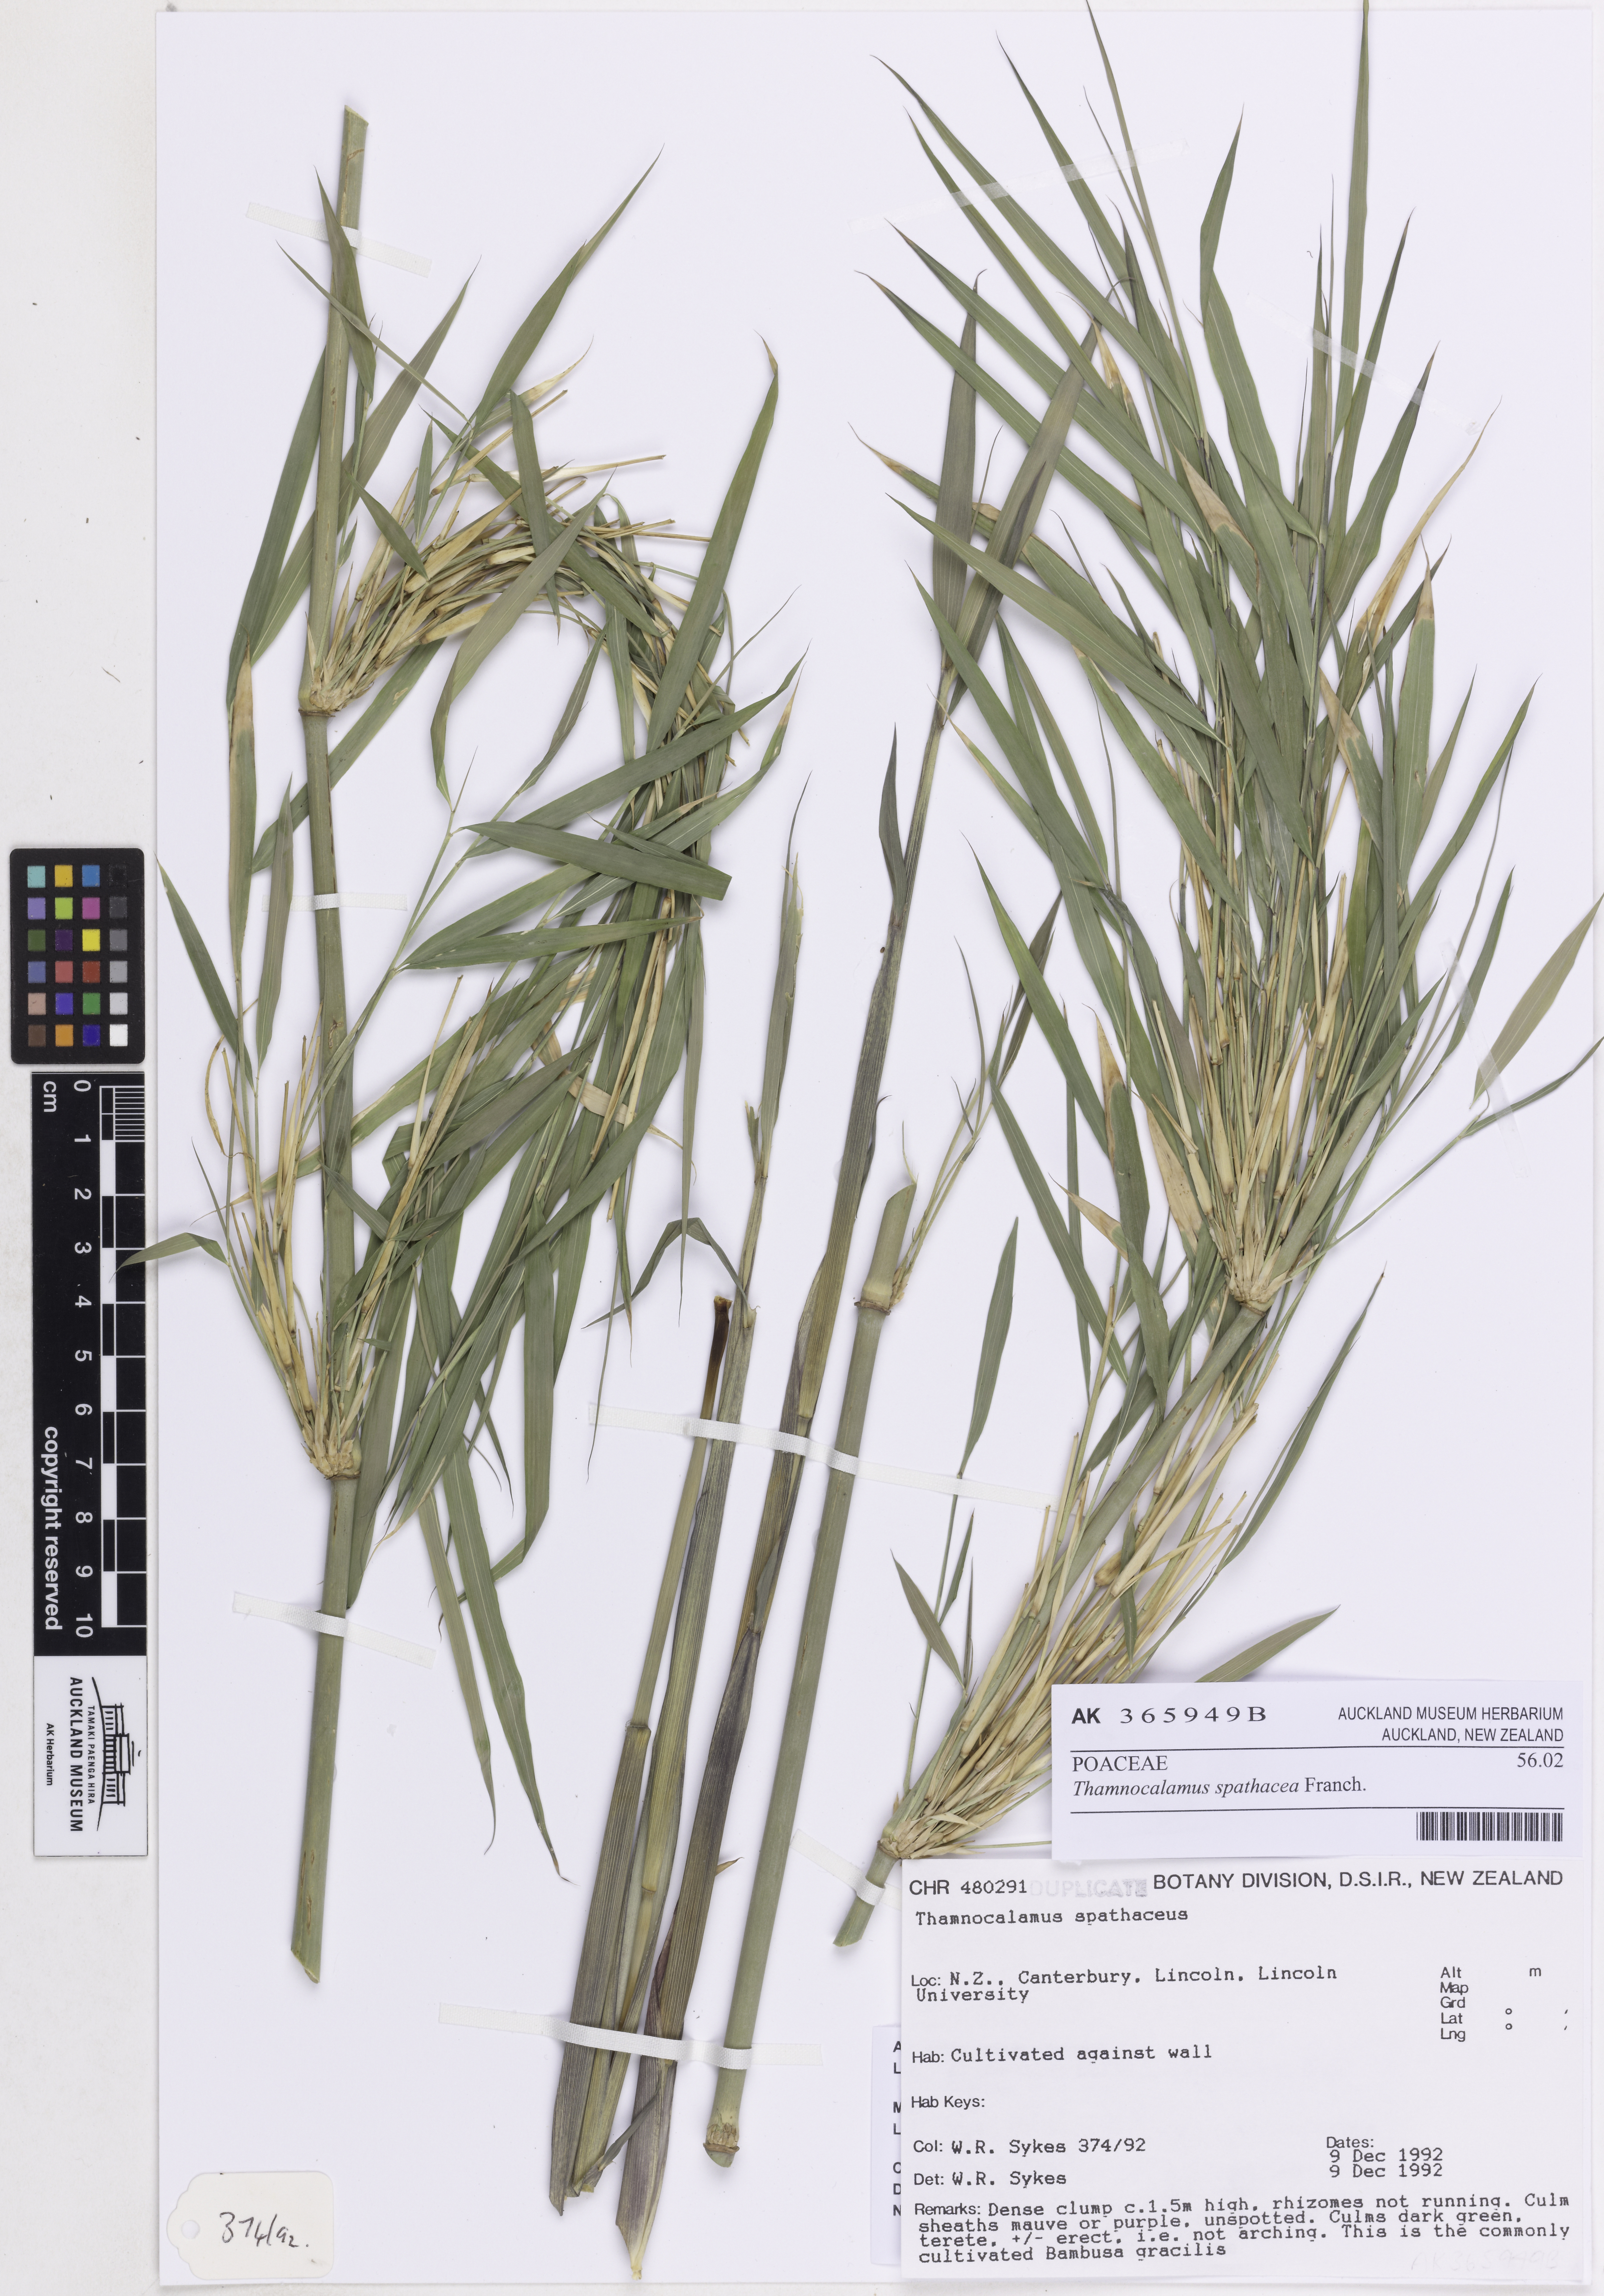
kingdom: Plantae
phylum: Tracheophyta
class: Liliopsida
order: Poales
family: Poaceae
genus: Fargesia
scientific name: Fargesia spathacea
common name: Chinese fountain-bamboo
